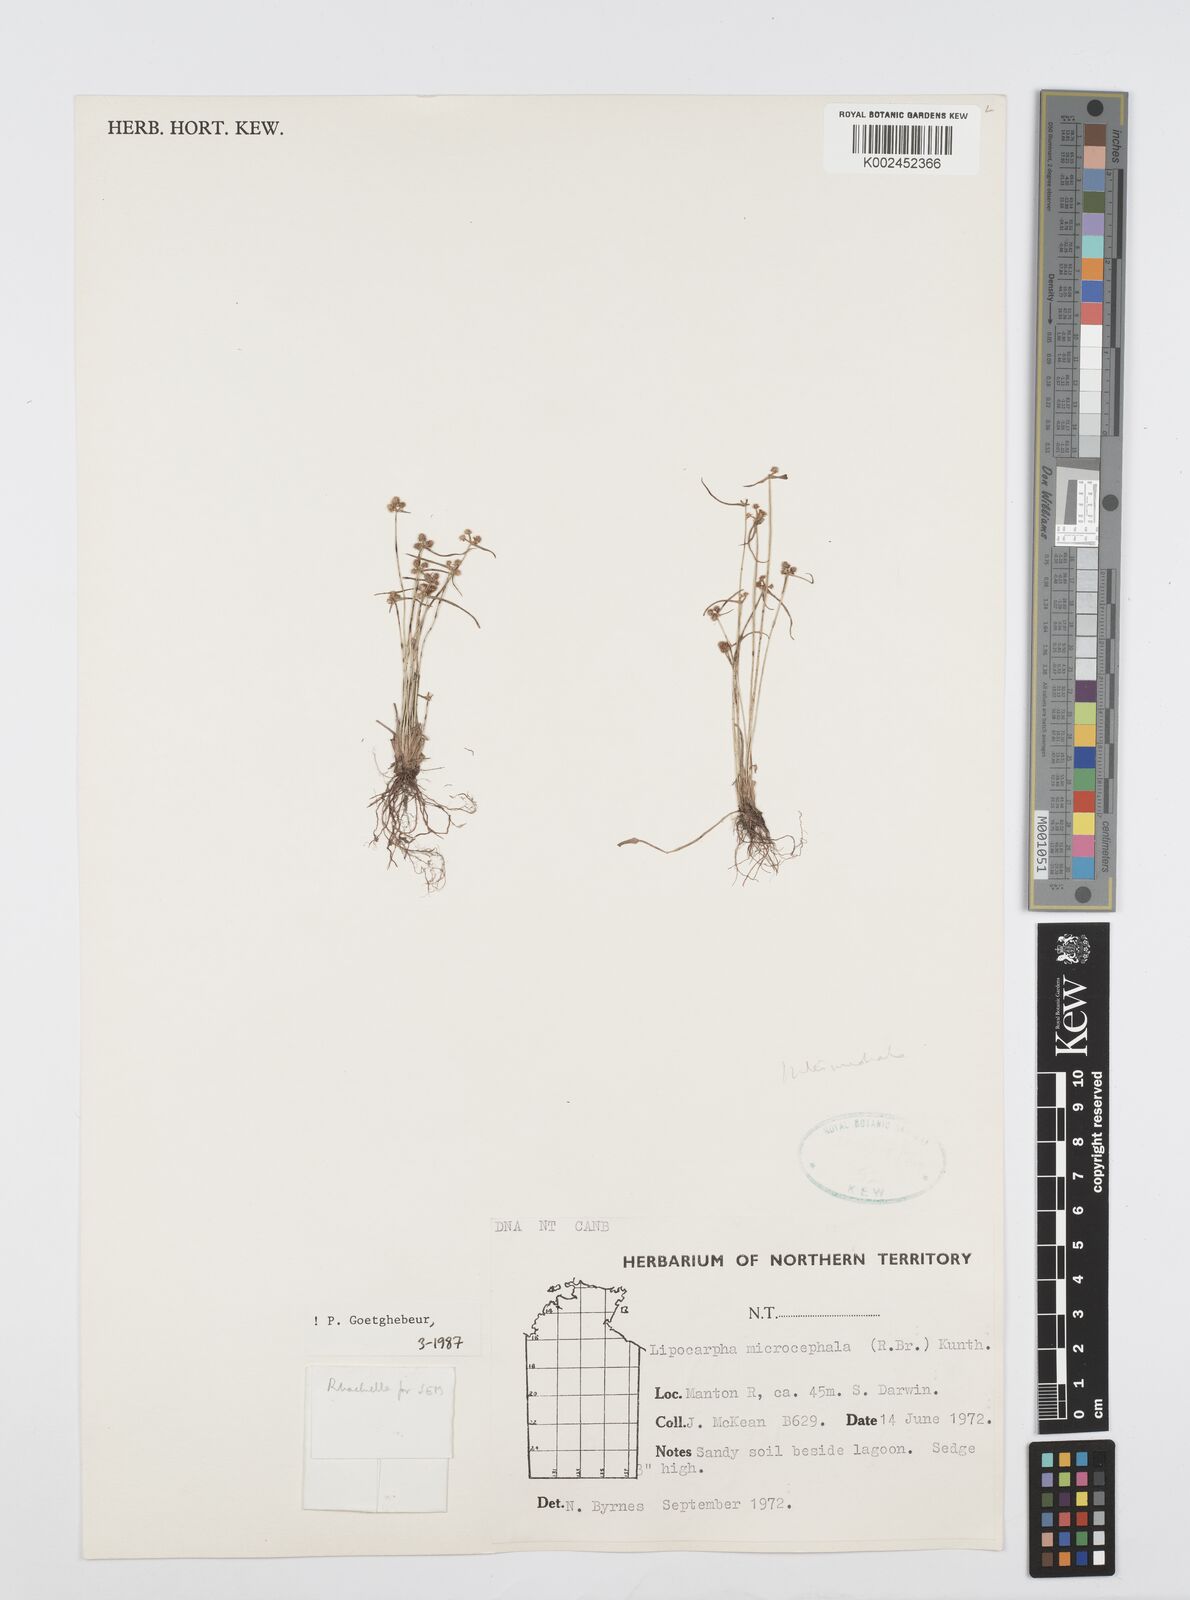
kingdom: Plantae
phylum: Tracheophyta
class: Liliopsida
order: Poales
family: Cyperaceae
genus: Cyperus
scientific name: Cyperus microcephalus
